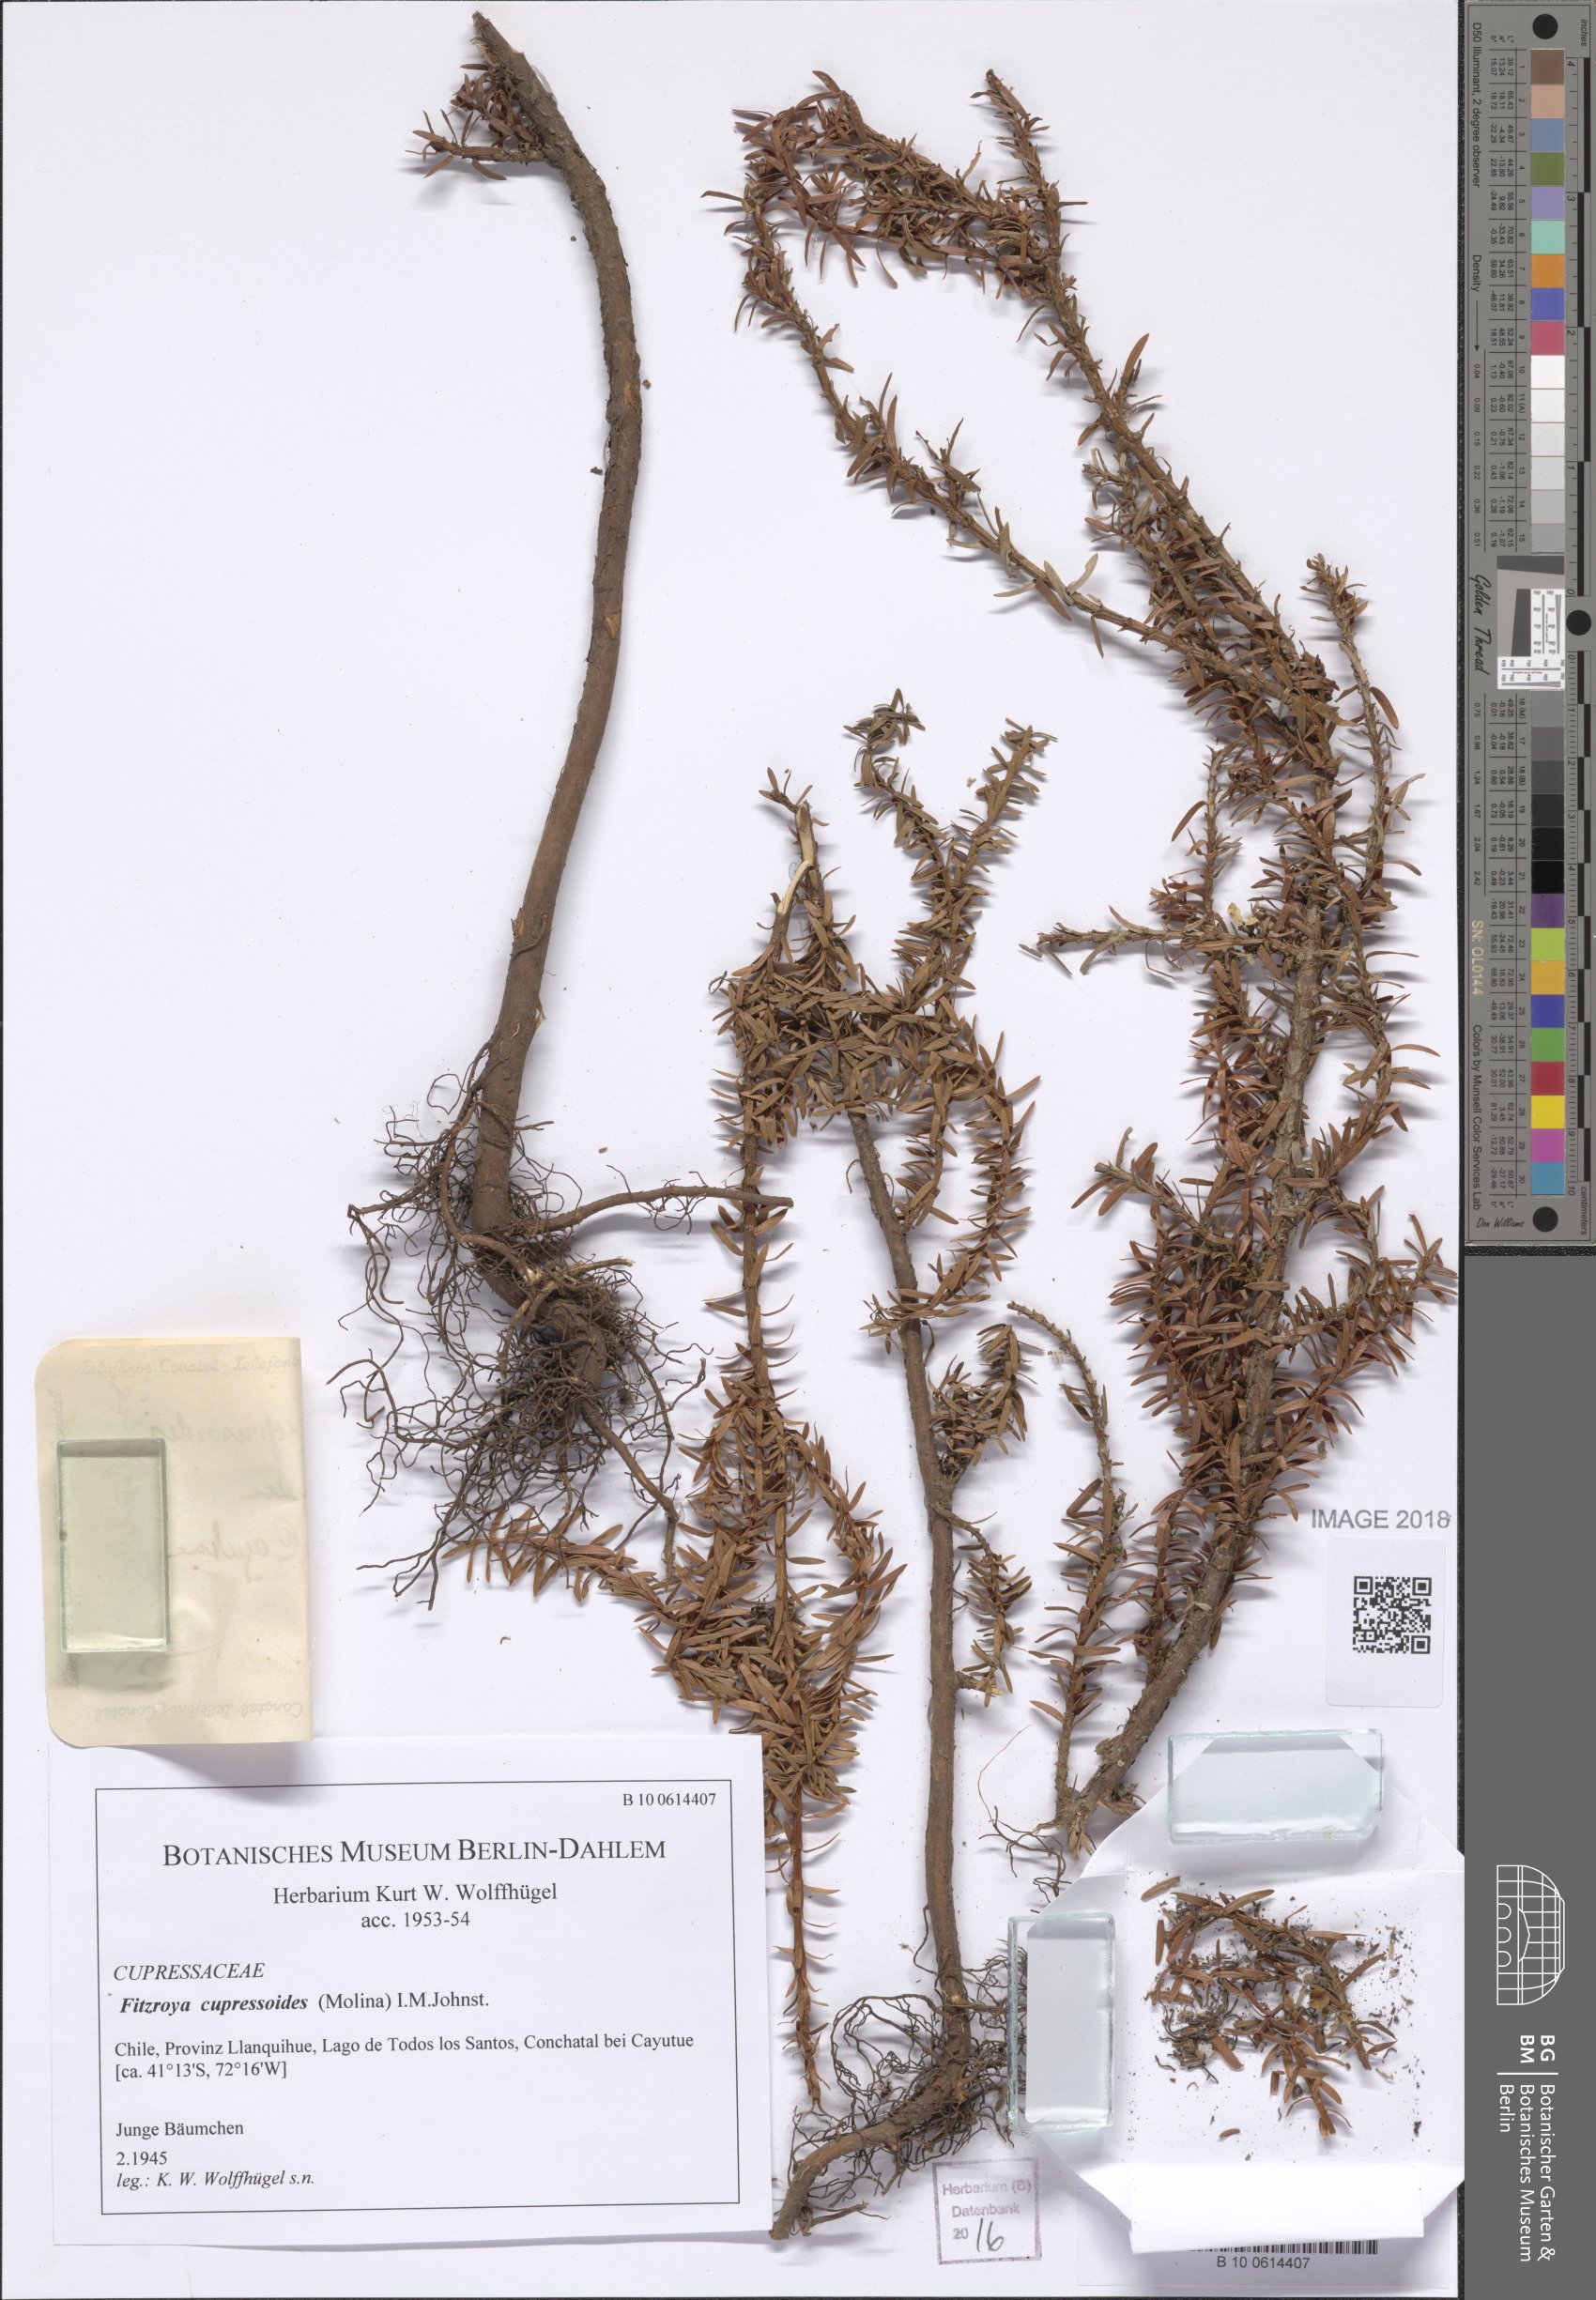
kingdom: Plantae
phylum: Tracheophyta
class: Pinopsida
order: Pinales
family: Cupressaceae
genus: Fitzroya
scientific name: Fitzroya cupressoides
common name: Patagonian cypress
